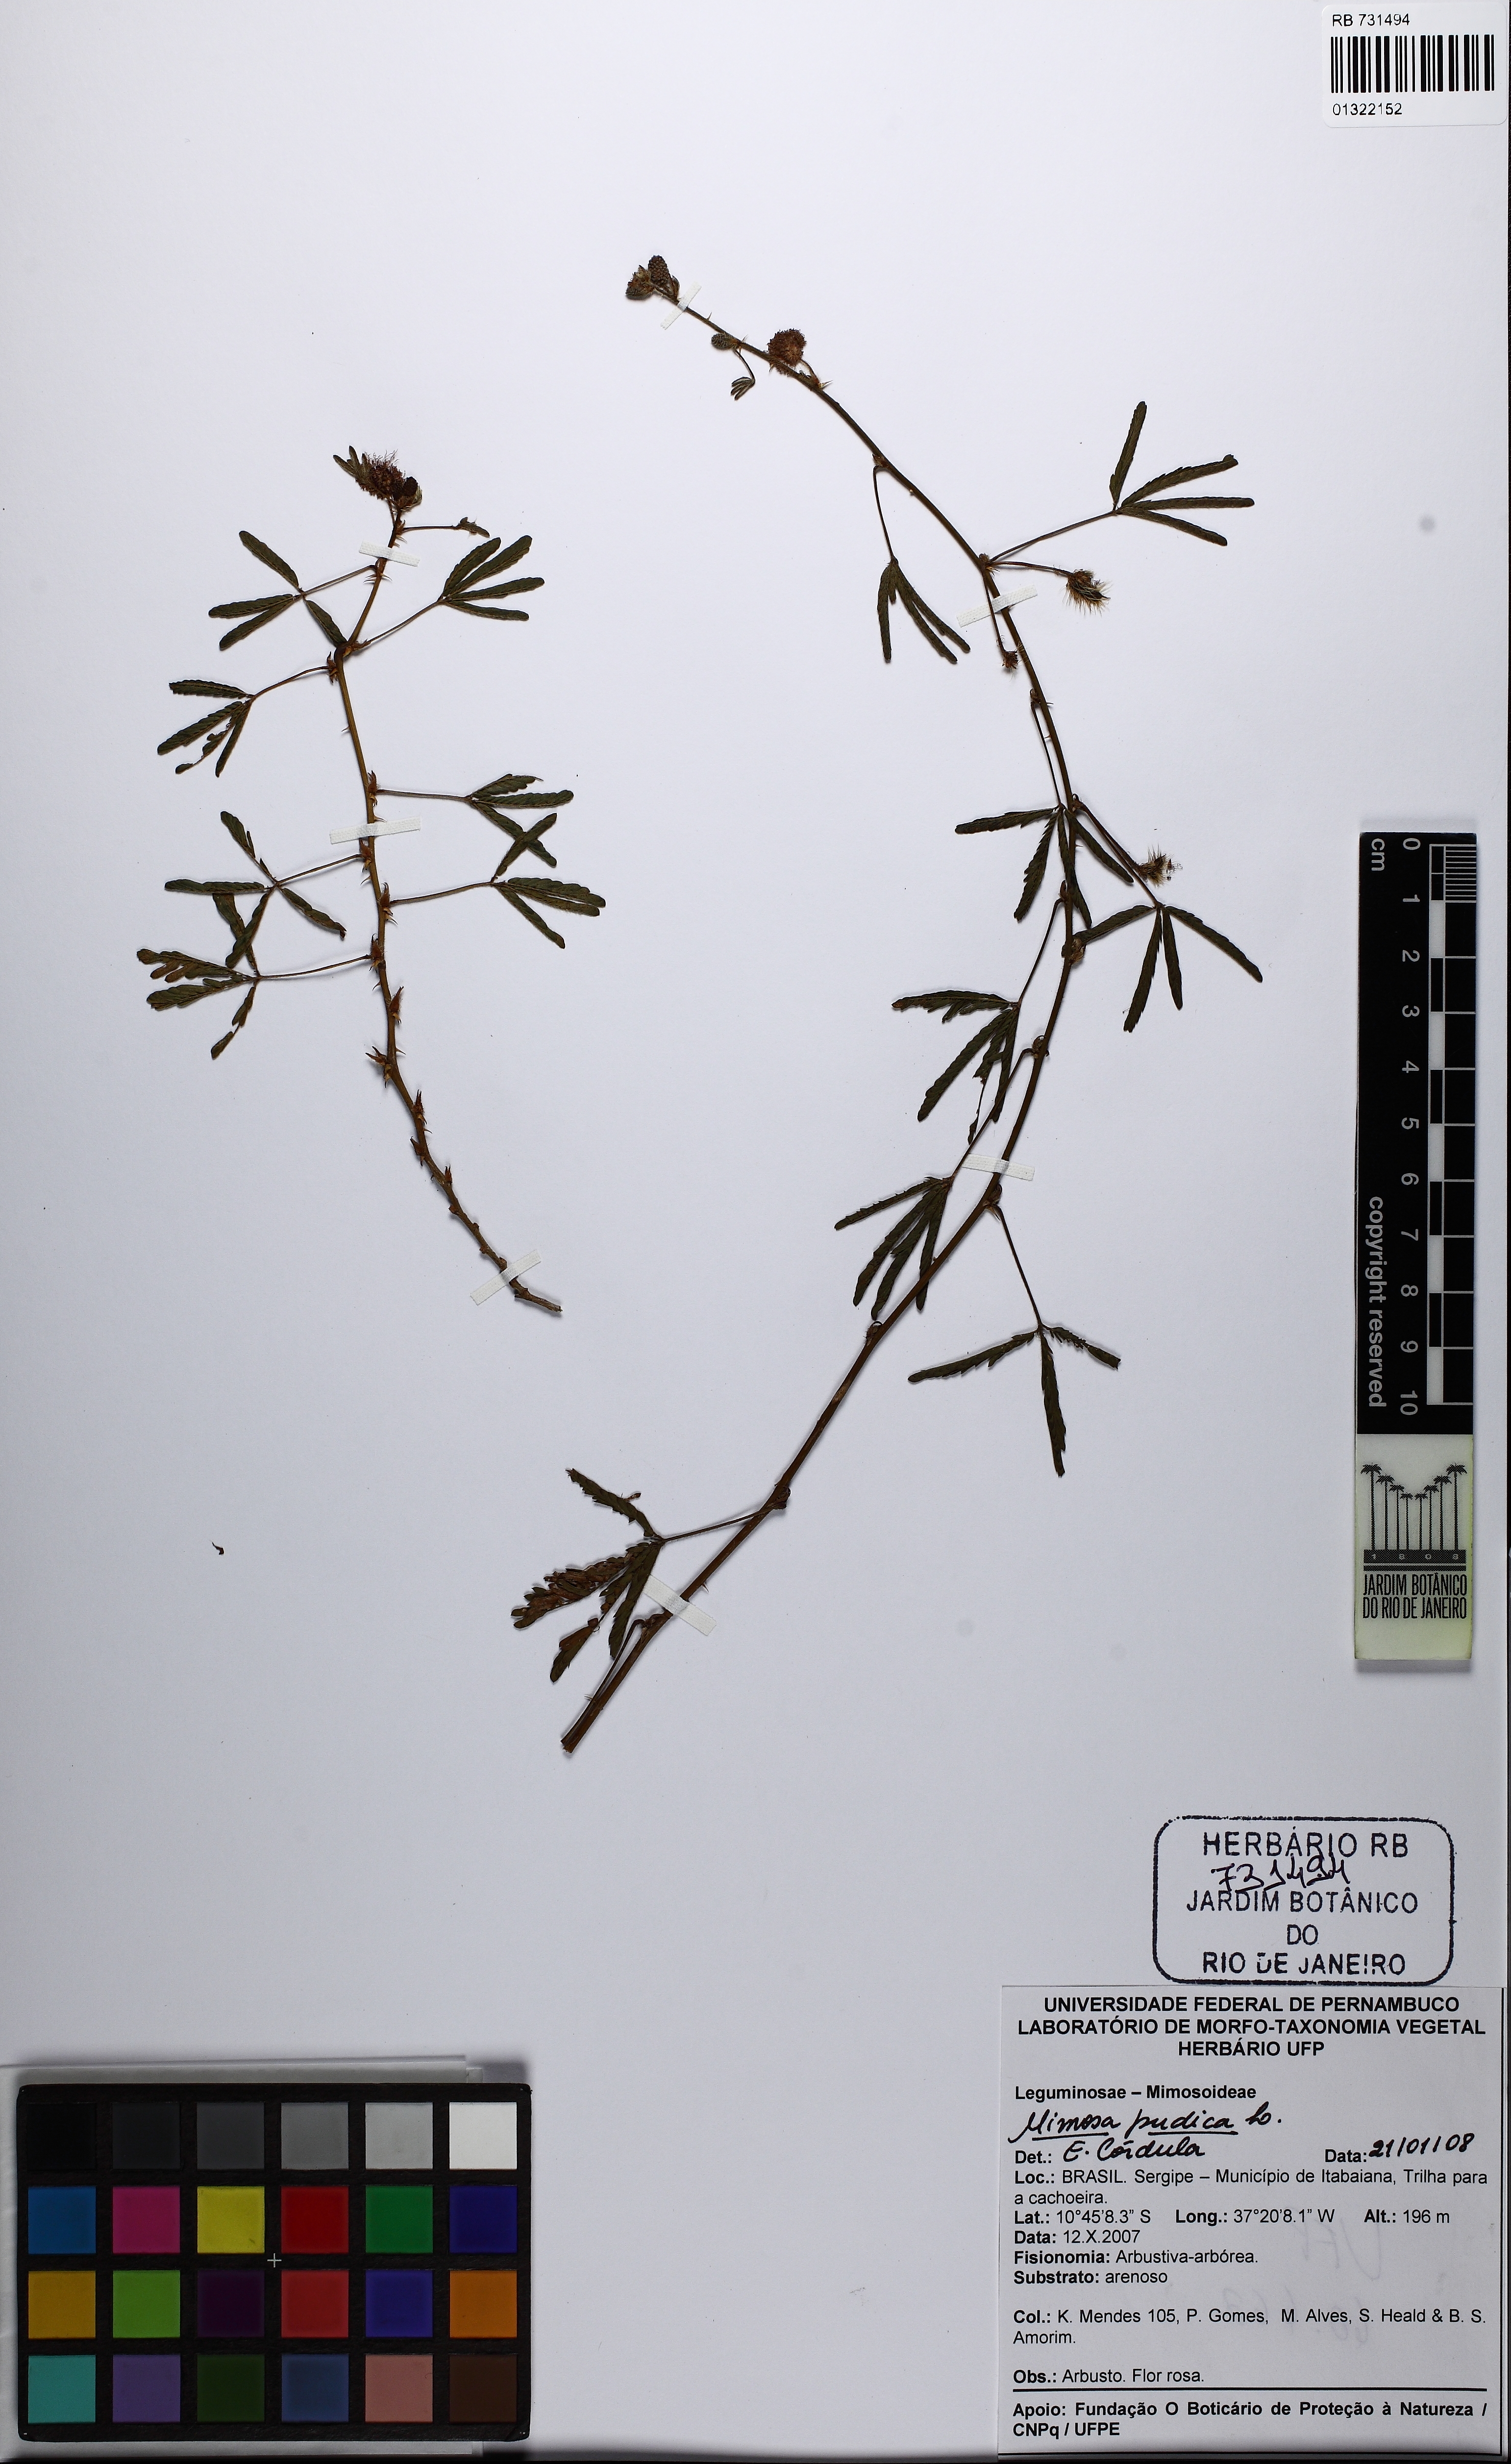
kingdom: Plantae
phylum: Tracheophyta
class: Magnoliopsida
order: Fabales
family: Fabaceae
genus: Mimosa
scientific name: Mimosa pudica
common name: Sensitive plant
